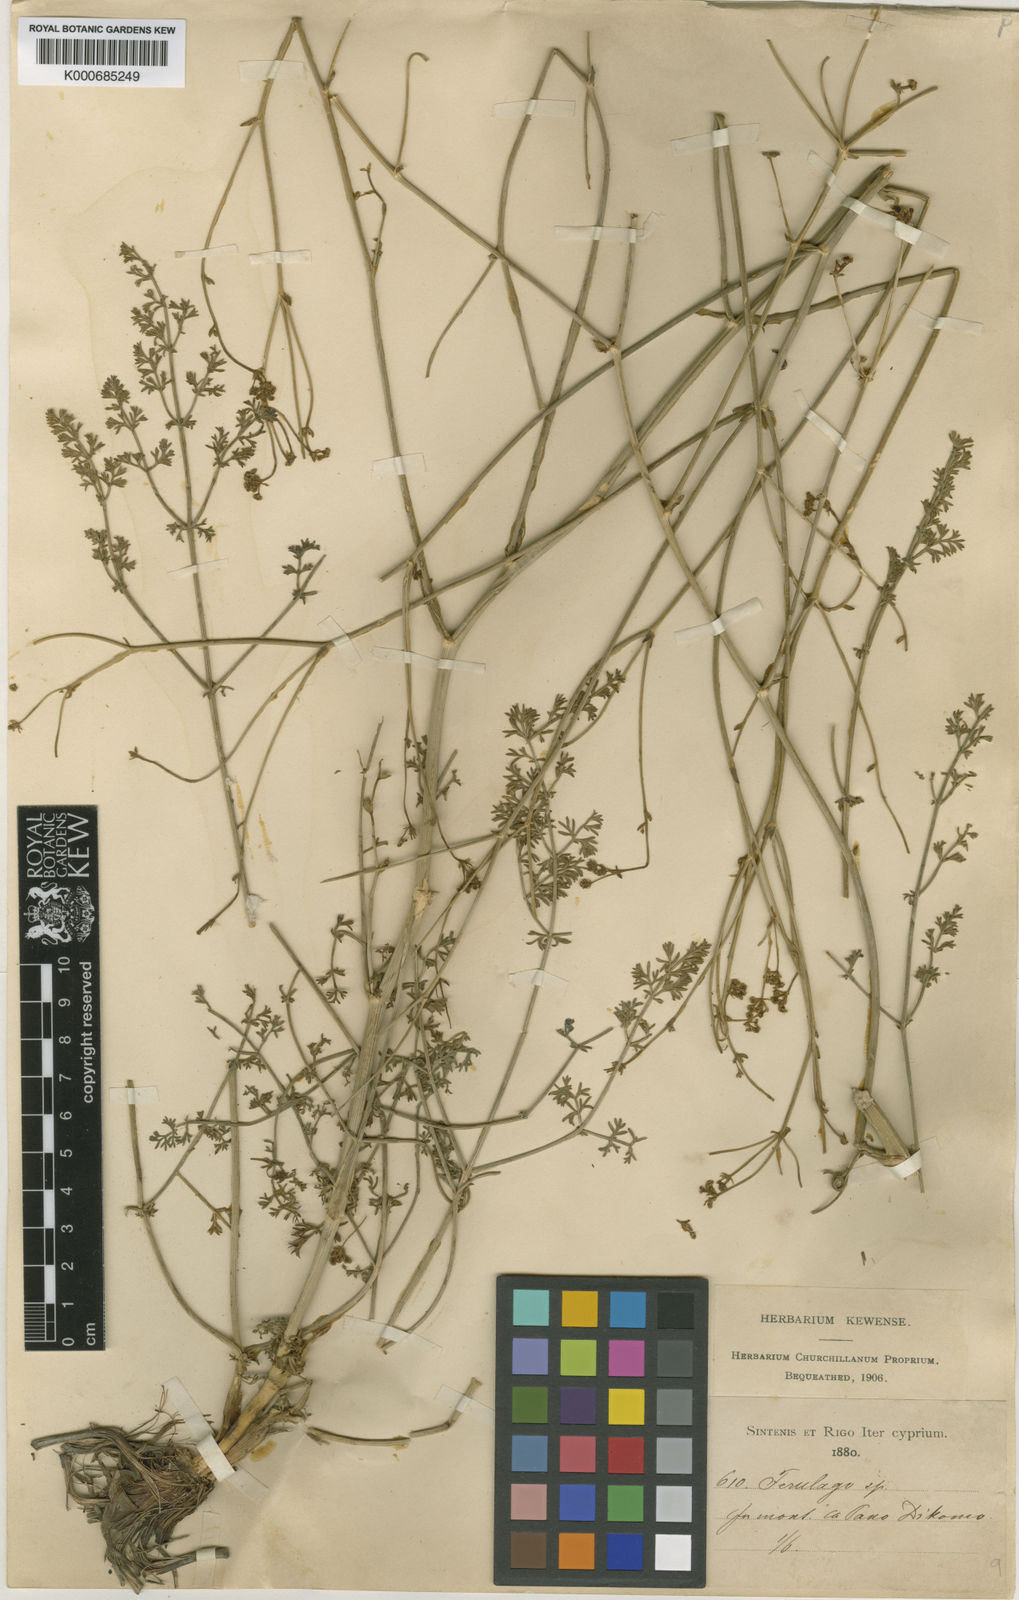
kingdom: Plantae
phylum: Tracheophyta
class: Magnoliopsida
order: Apiales
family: Apiaceae
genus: Ferulago
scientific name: Ferulago syriaca
